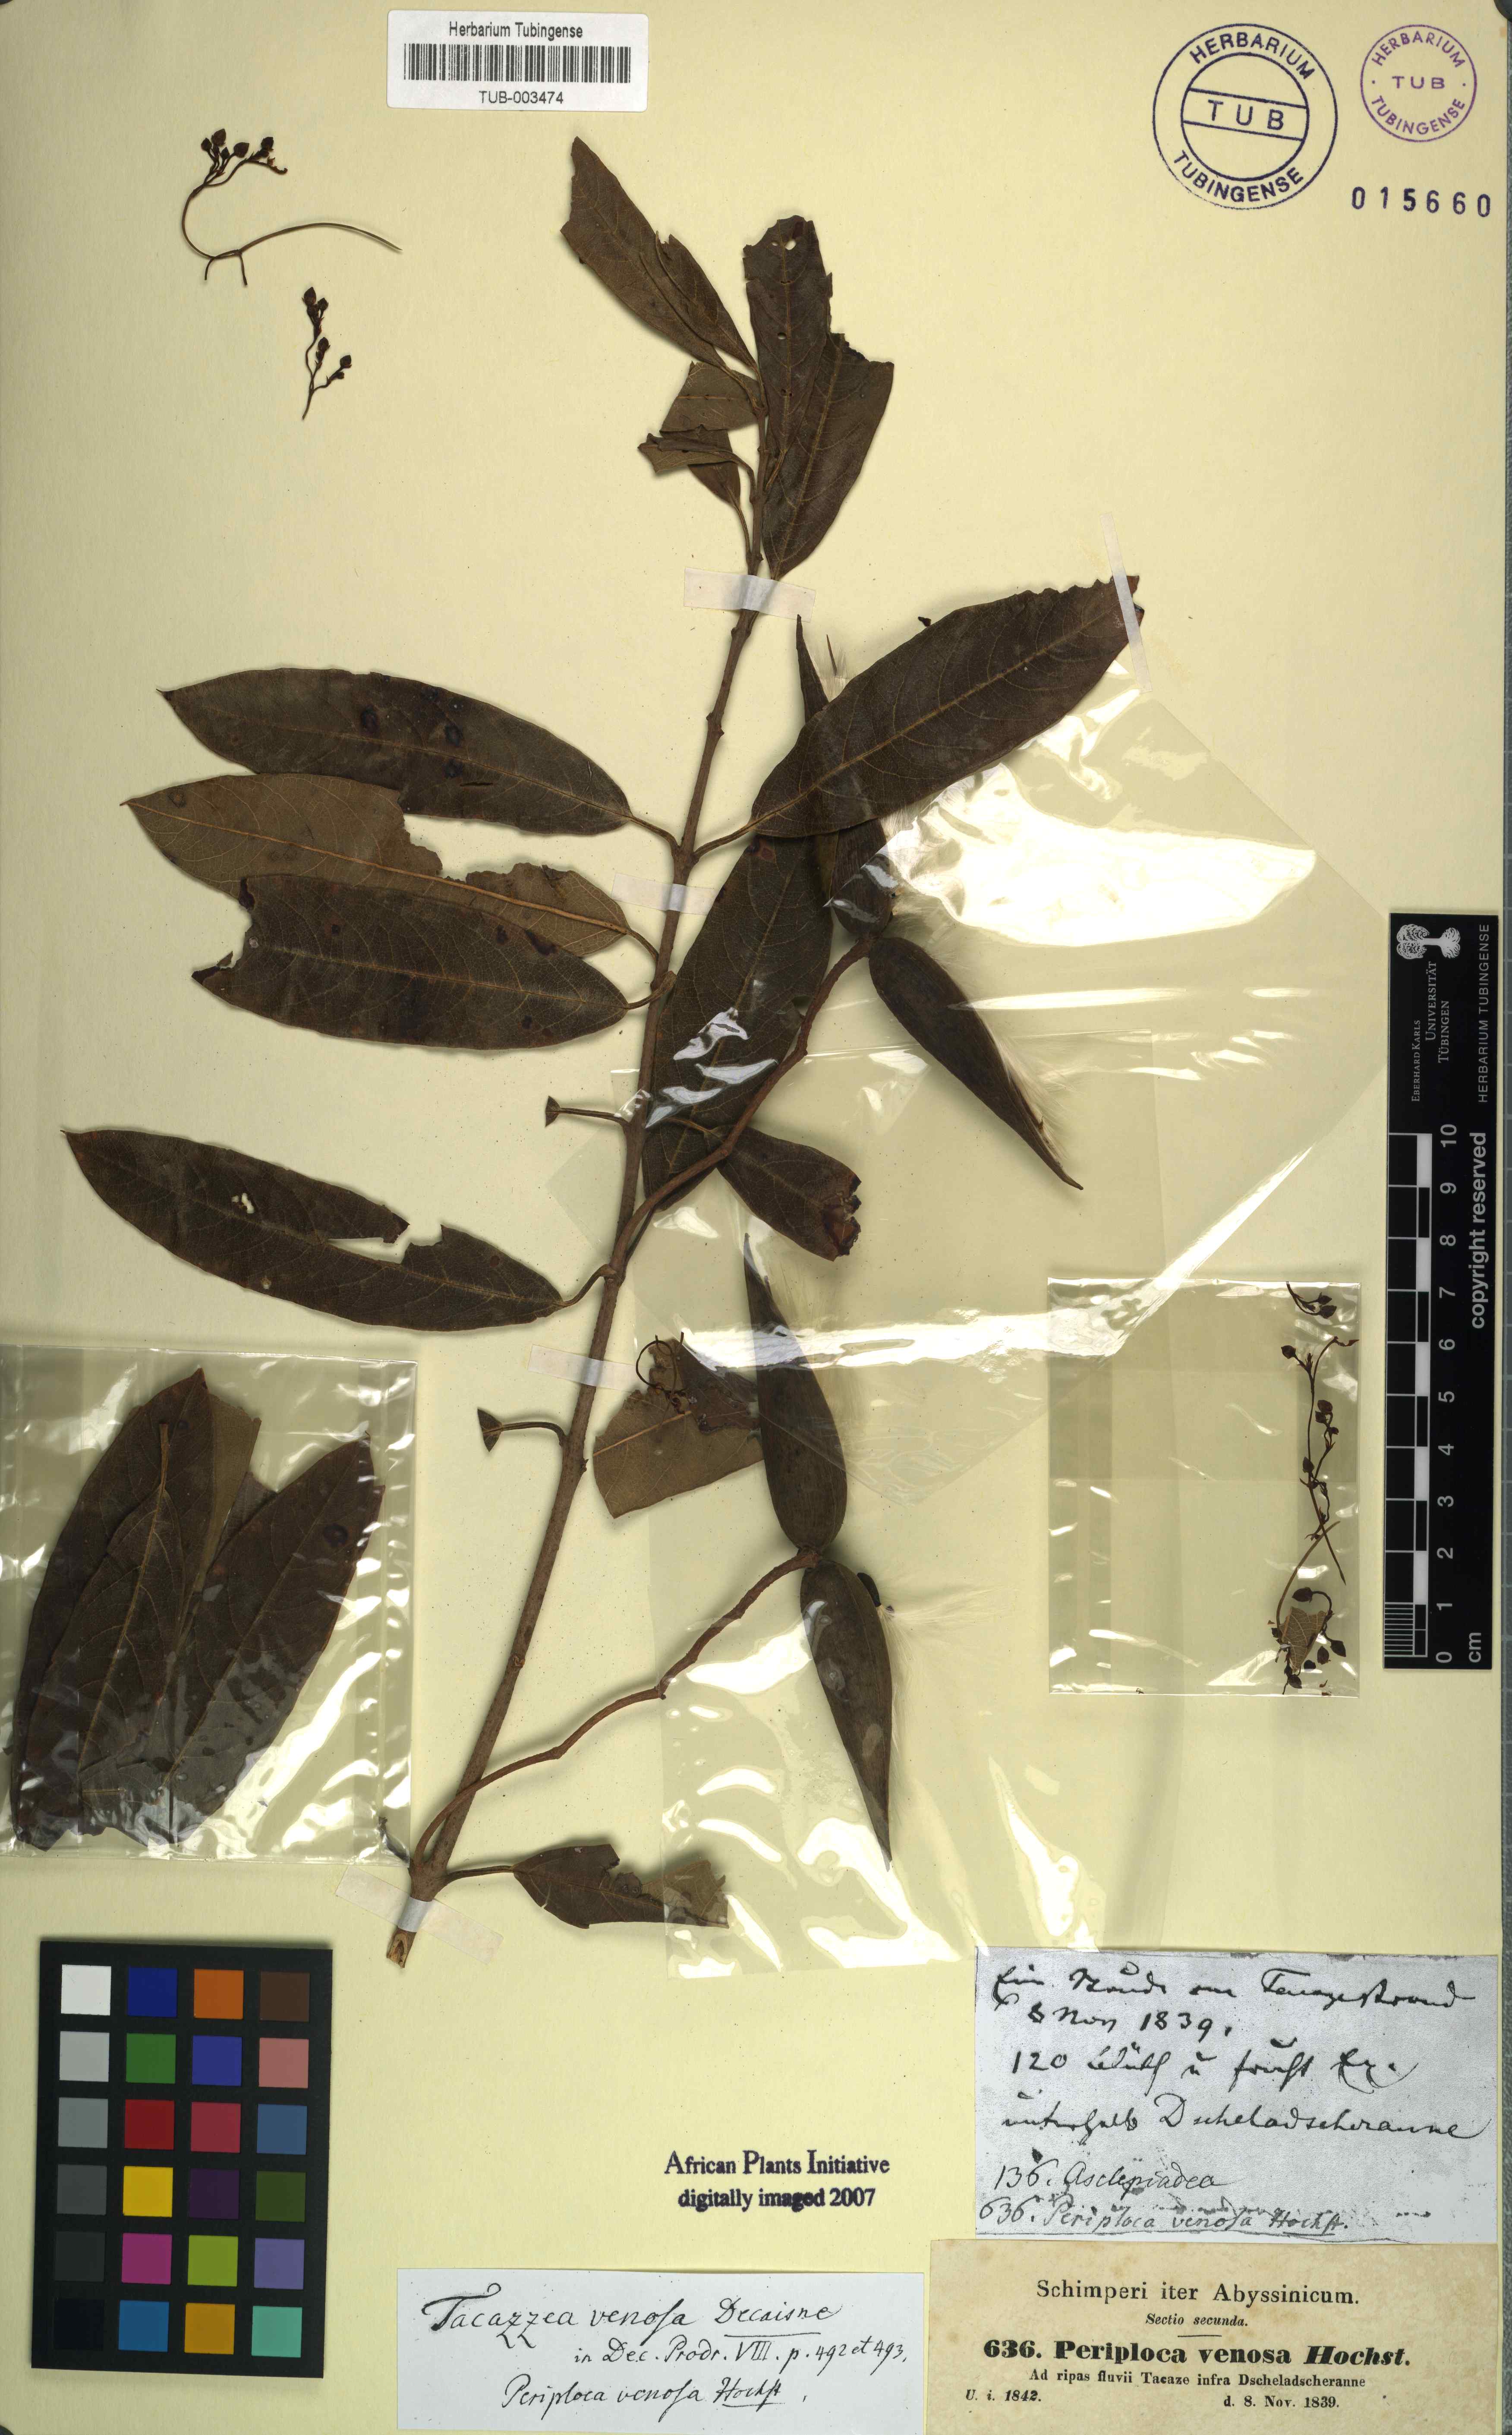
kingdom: Plantae
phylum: Tracheophyta
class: Magnoliopsida
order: Gentianales
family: Apocynaceae
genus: Tacazzea
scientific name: Tacazzea venosa
